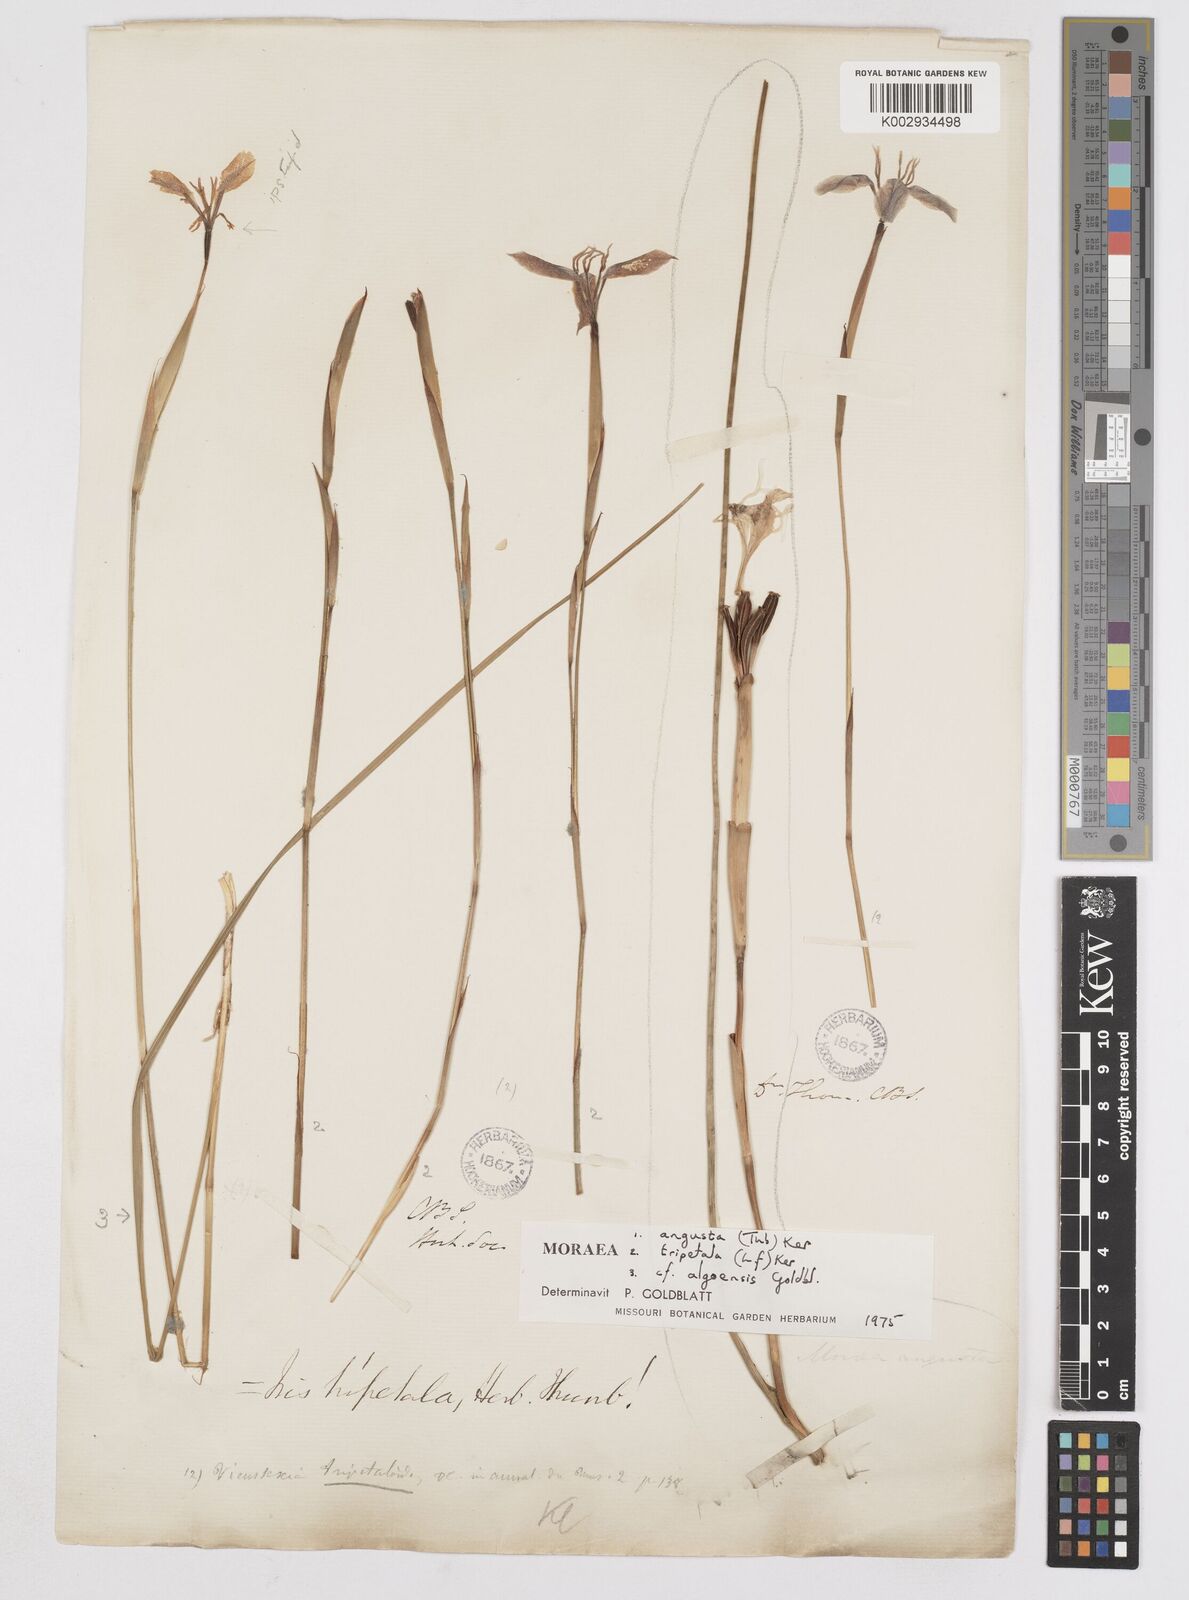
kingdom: Plantae
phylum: Tracheophyta
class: Liliopsida
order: Asparagales
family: Iridaceae
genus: Moraea
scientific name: Moraea tripetala
